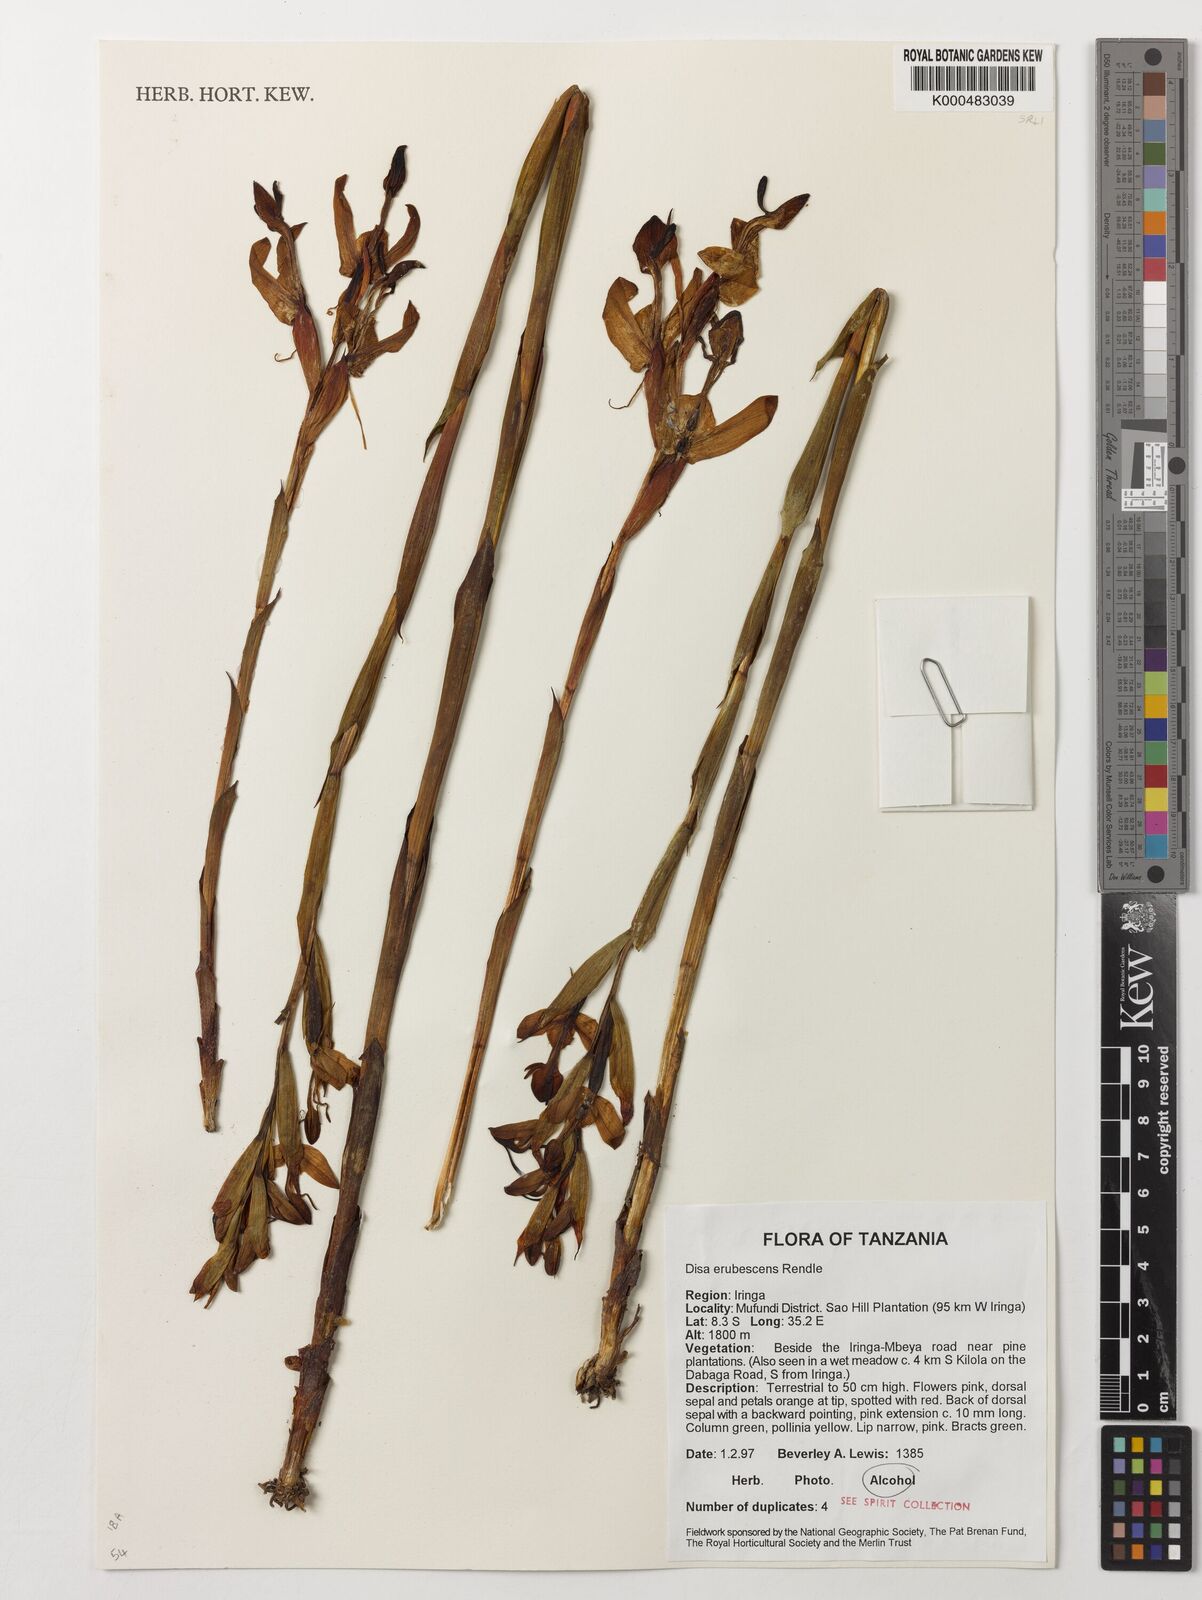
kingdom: Plantae
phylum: Tracheophyta
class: Liliopsida
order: Asparagales
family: Orchidaceae
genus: Disa
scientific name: Disa erubescens
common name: The rose disa
